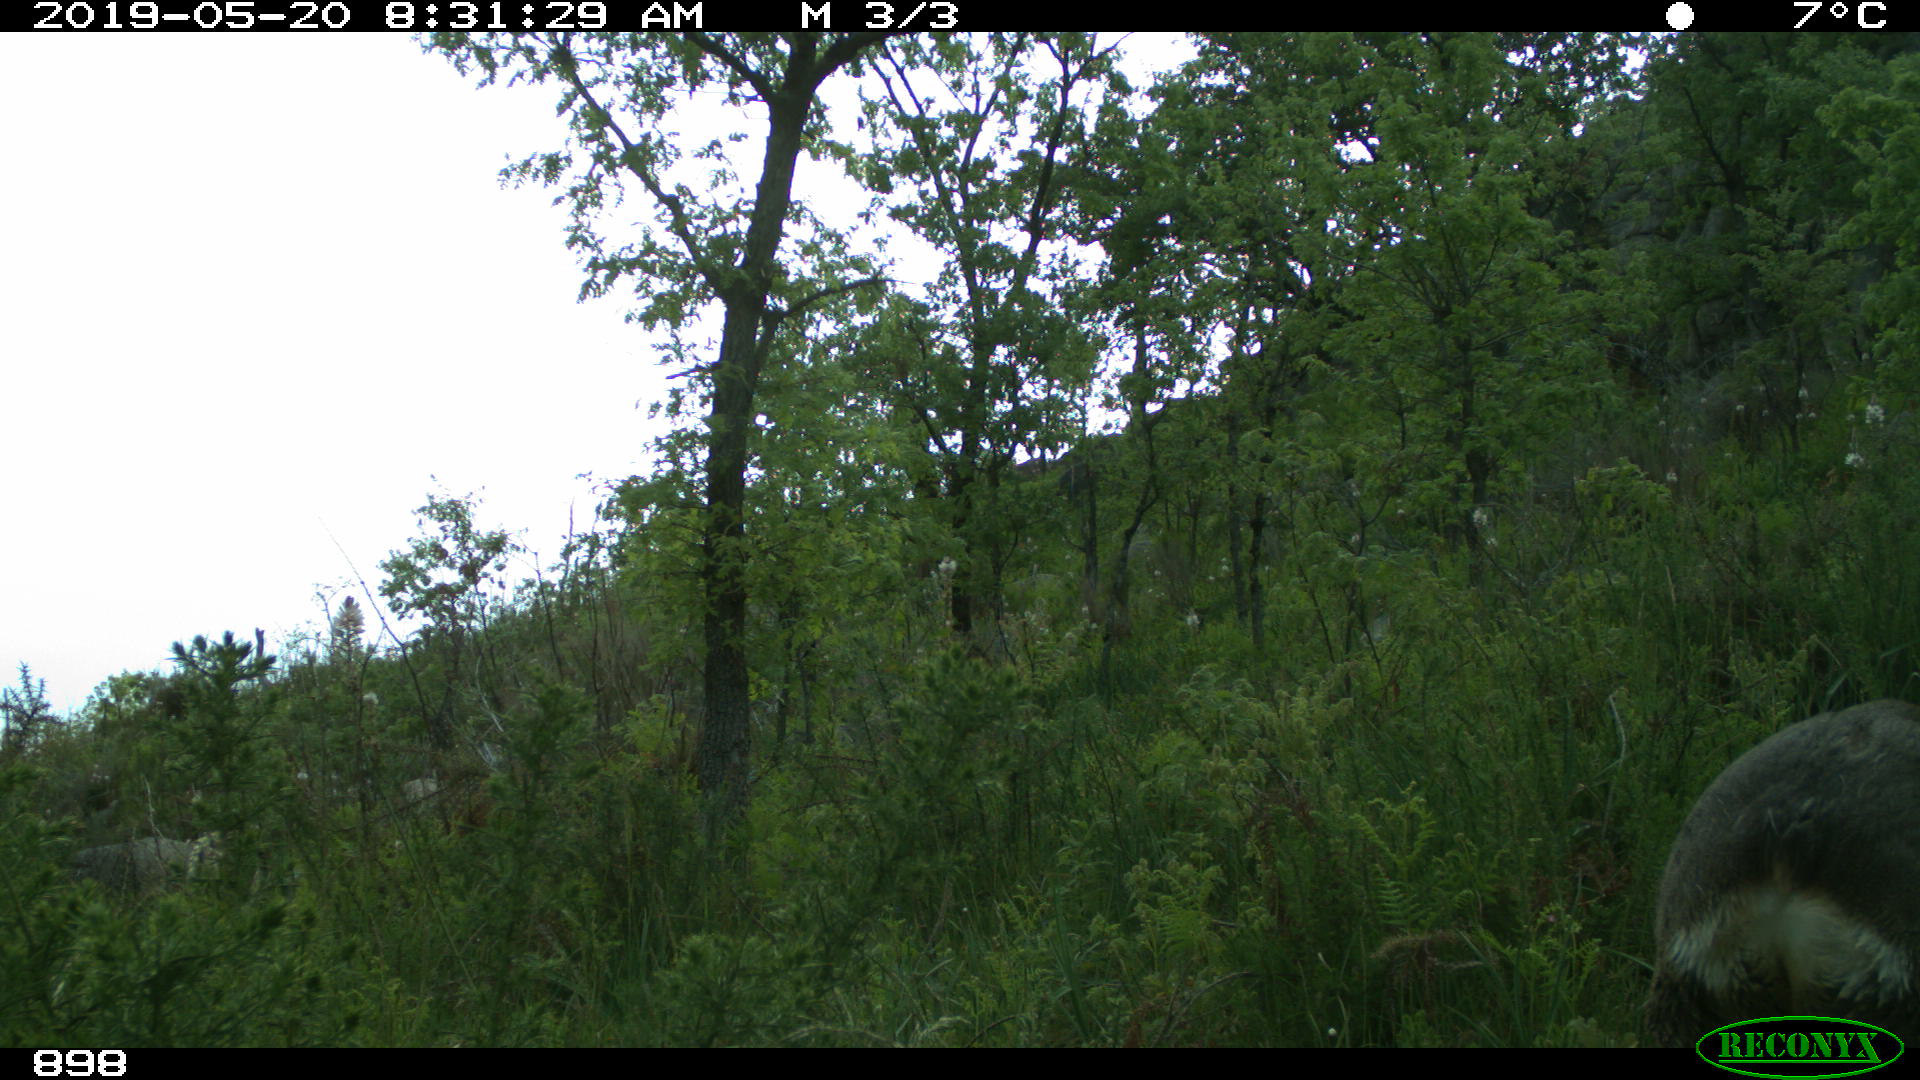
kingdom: Animalia
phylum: Chordata
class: Mammalia
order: Artiodactyla
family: Cervidae
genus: Capreolus
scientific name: Capreolus capreolus
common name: Western roe deer
